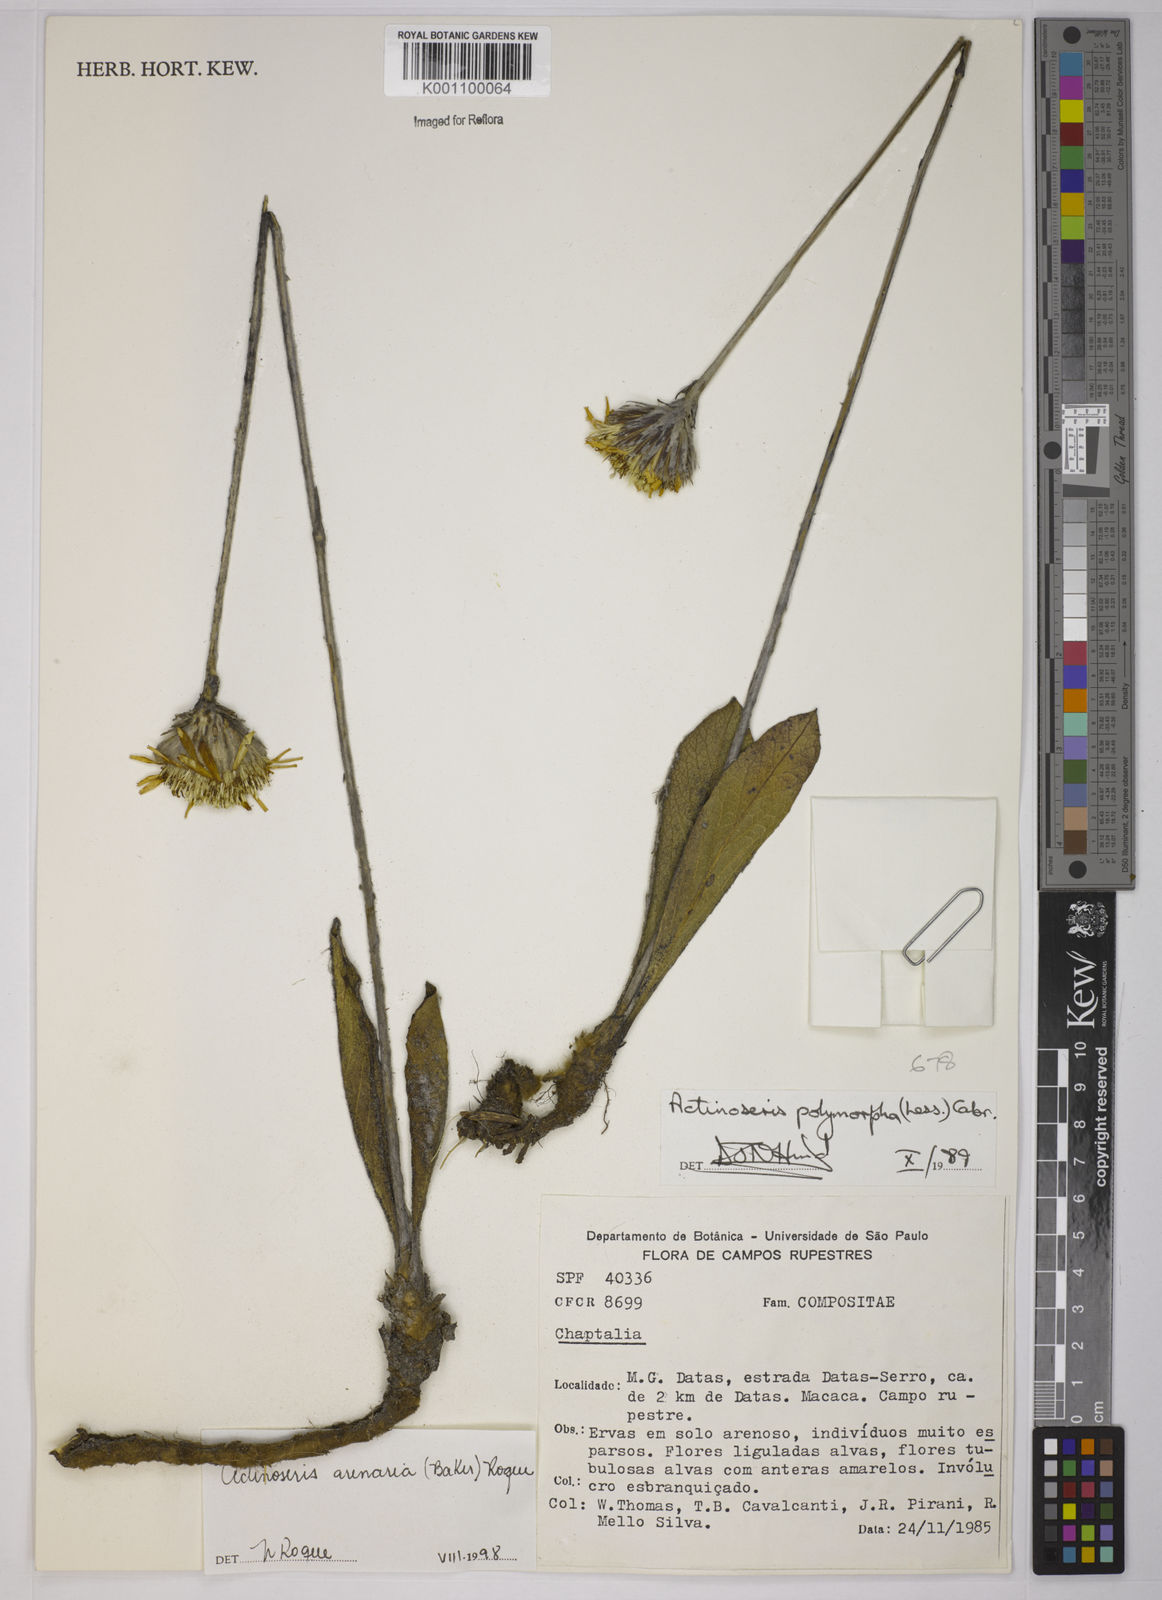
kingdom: Plantae
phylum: Tracheophyta
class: Magnoliopsida
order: Asterales
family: Asteraceae
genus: Richterago
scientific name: Richterago arenaria
